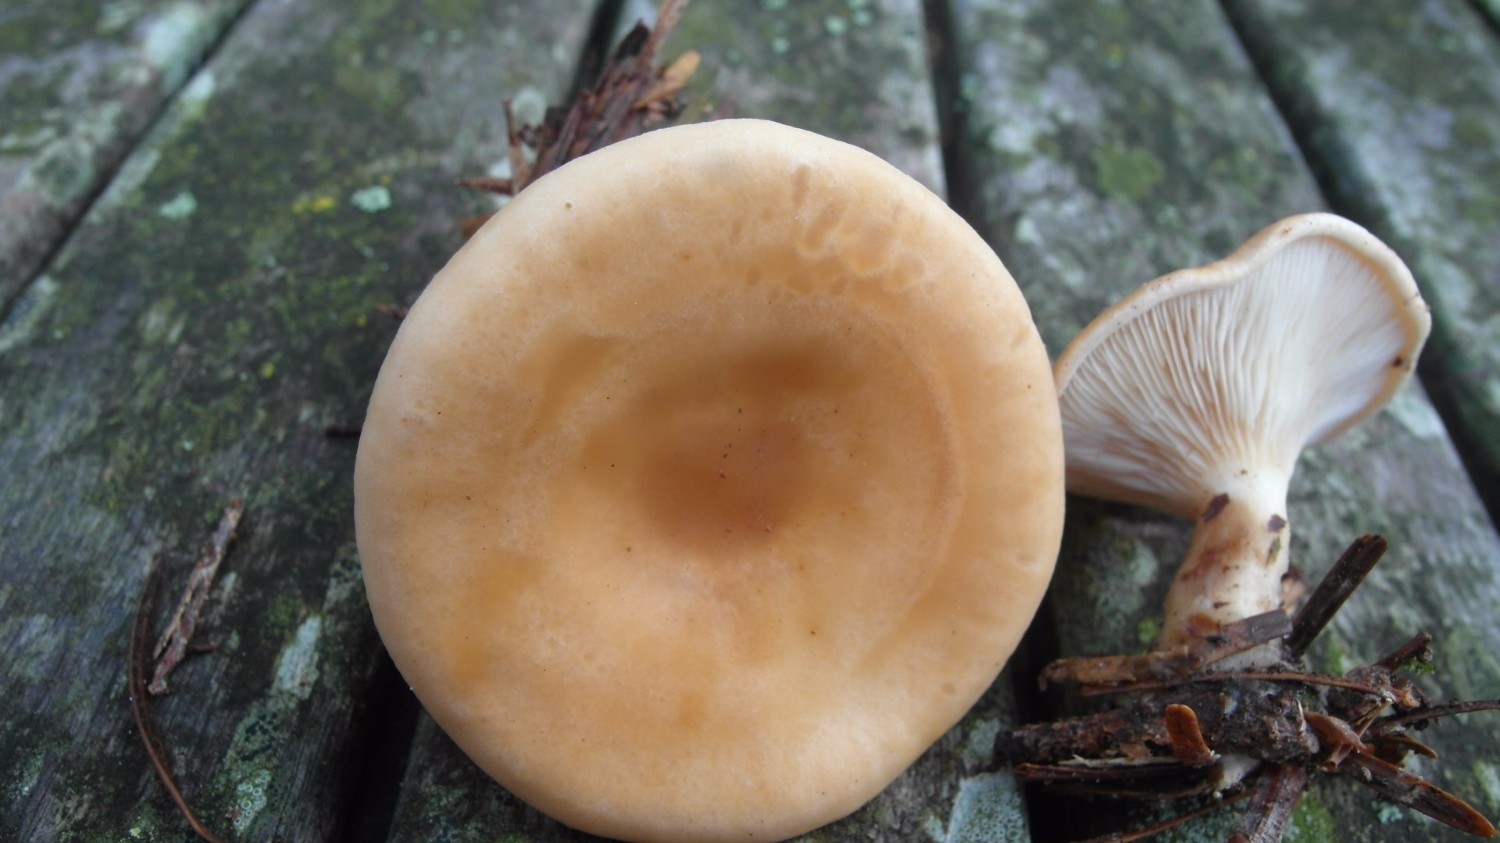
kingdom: Fungi
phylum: Basidiomycota
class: Agaricomycetes
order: Agaricales
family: Tricholomataceae
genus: Paralepista
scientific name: Paralepista flaccida
